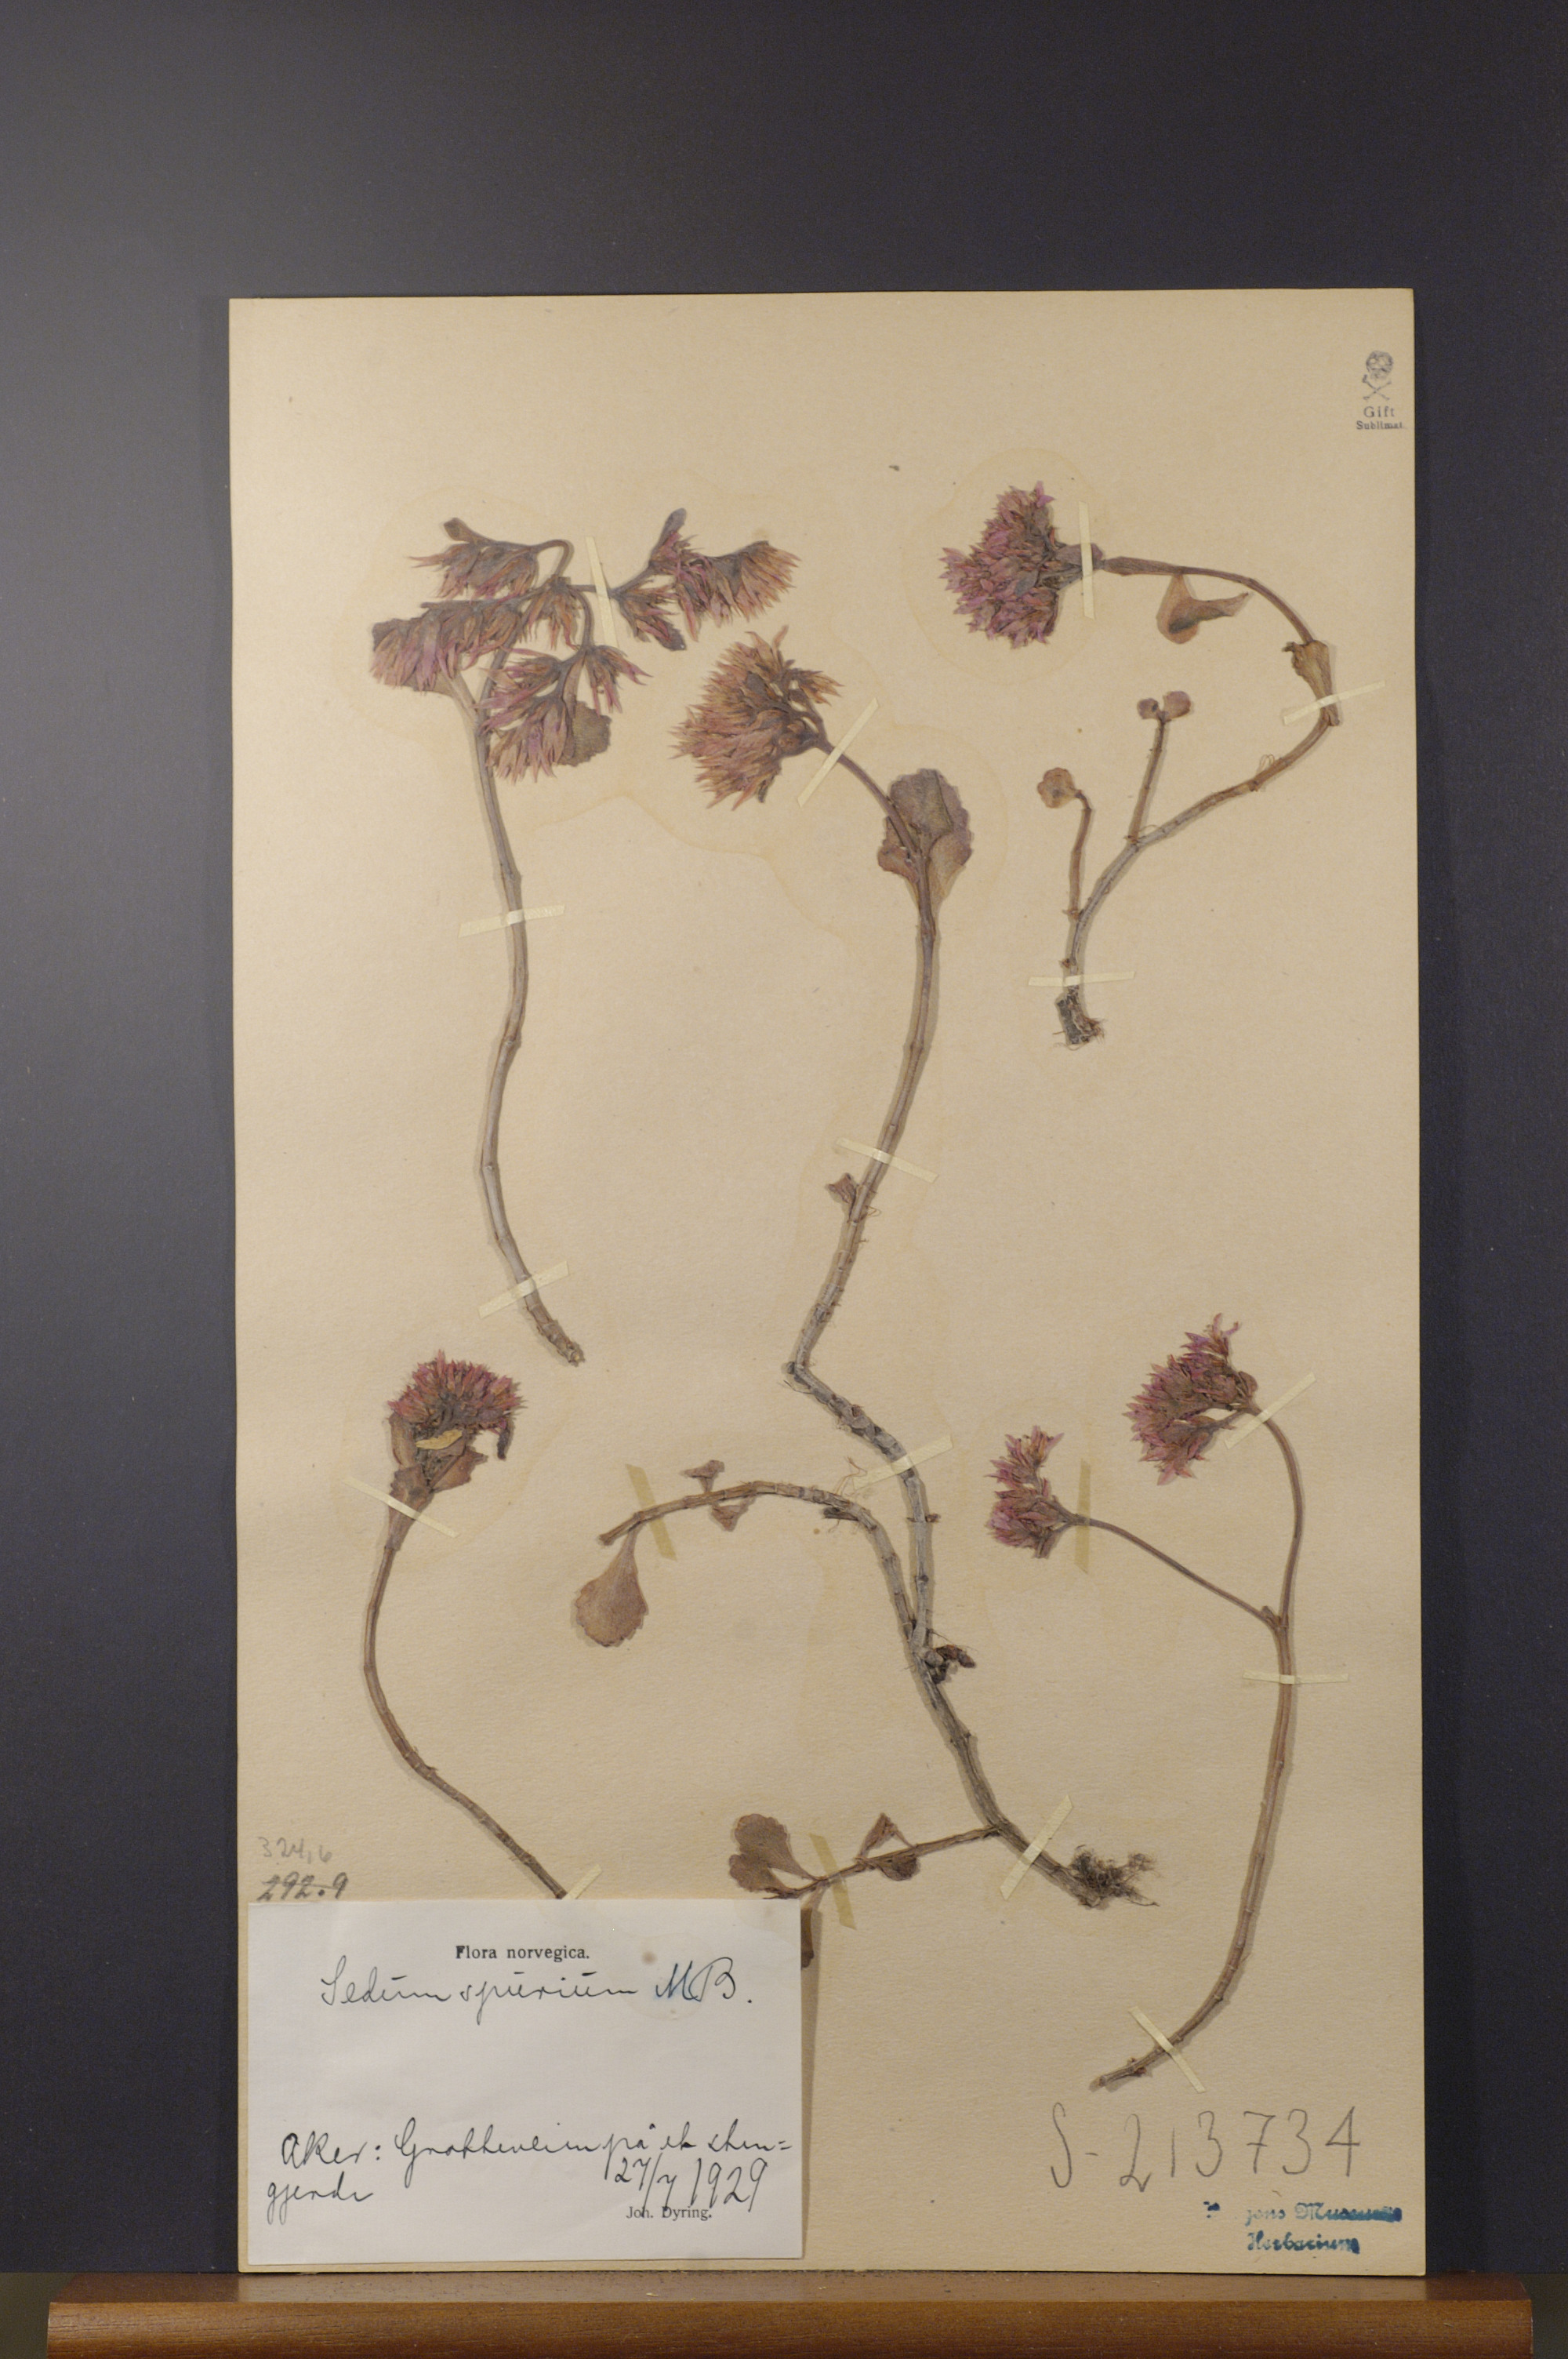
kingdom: Plantae
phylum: Tracheophyta
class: Magnoliopsida
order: Saxifragales
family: Crassulaceae
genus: Phedimus
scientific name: Phedimus spurius
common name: Caucasian stonecrop
